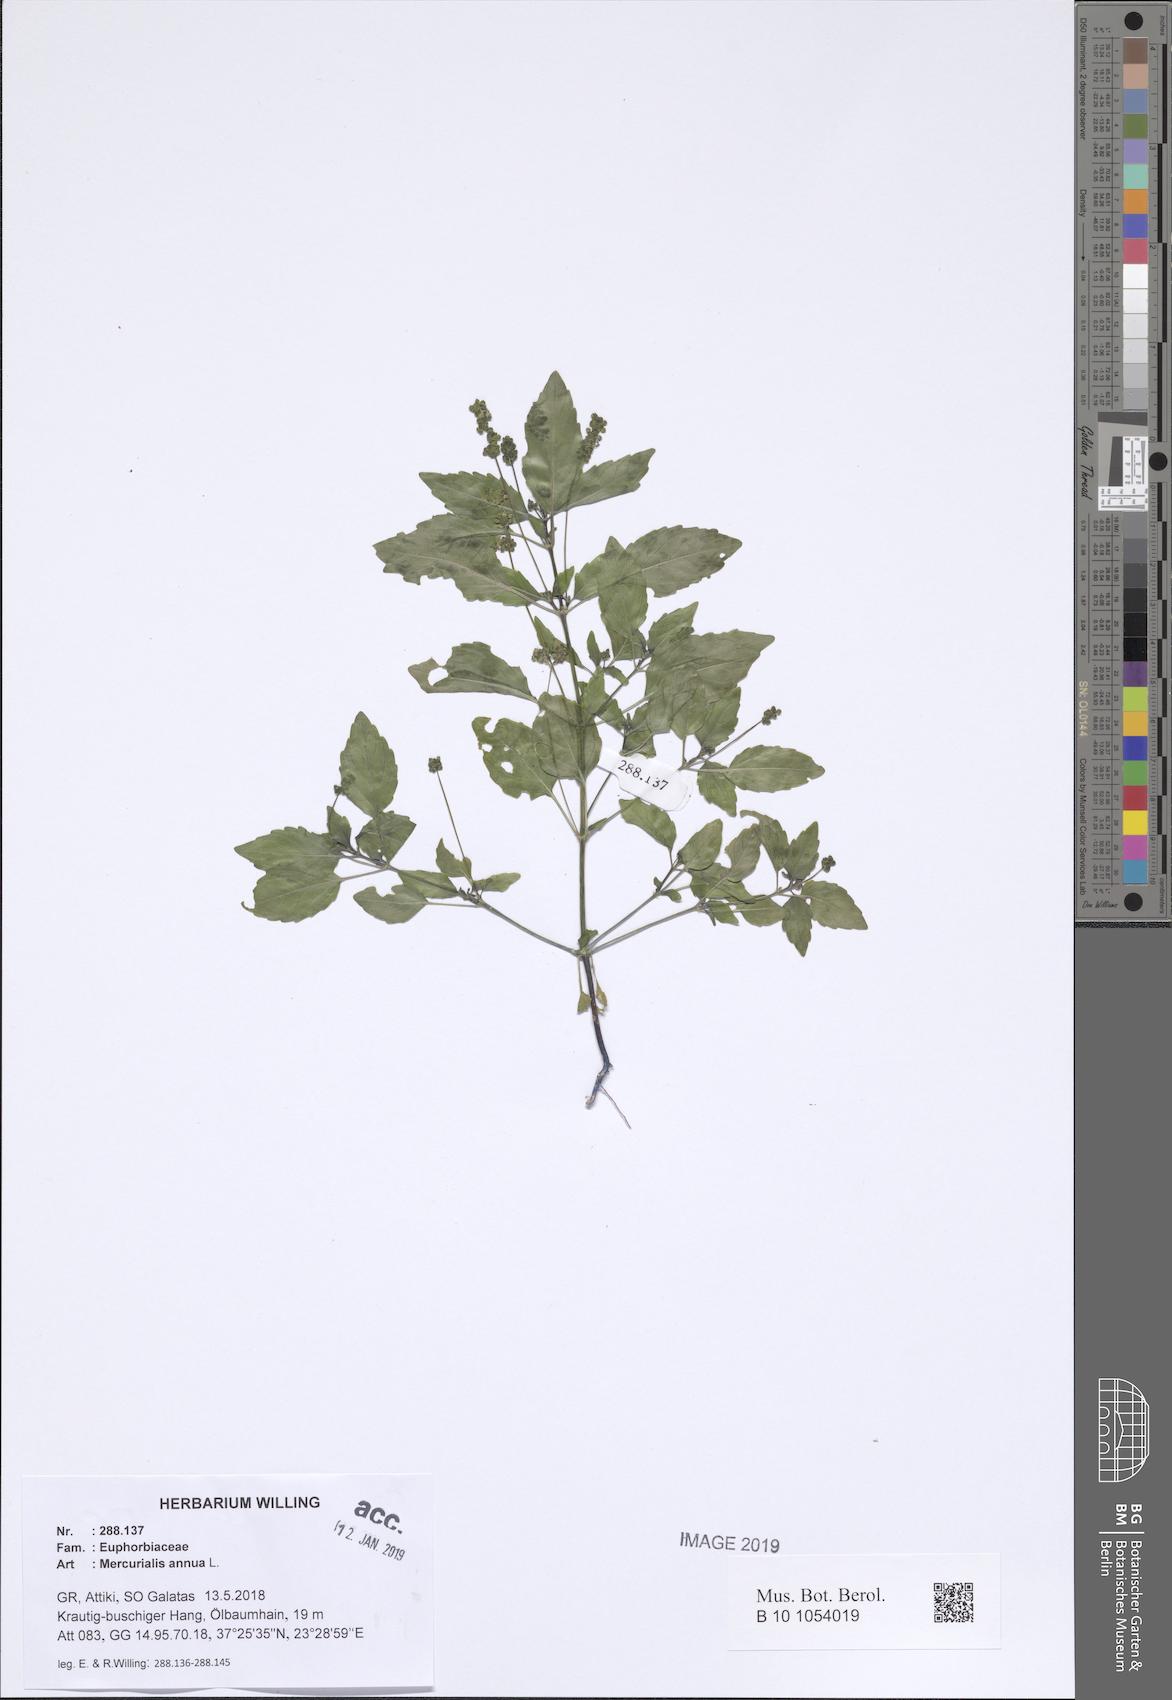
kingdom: Plantae
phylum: Tracheophyta
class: Magnoliopsida
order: Malpighiales
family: Euphorbiaceae
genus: Mercurialis
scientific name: Mercurialis annua
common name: Annual mercury
